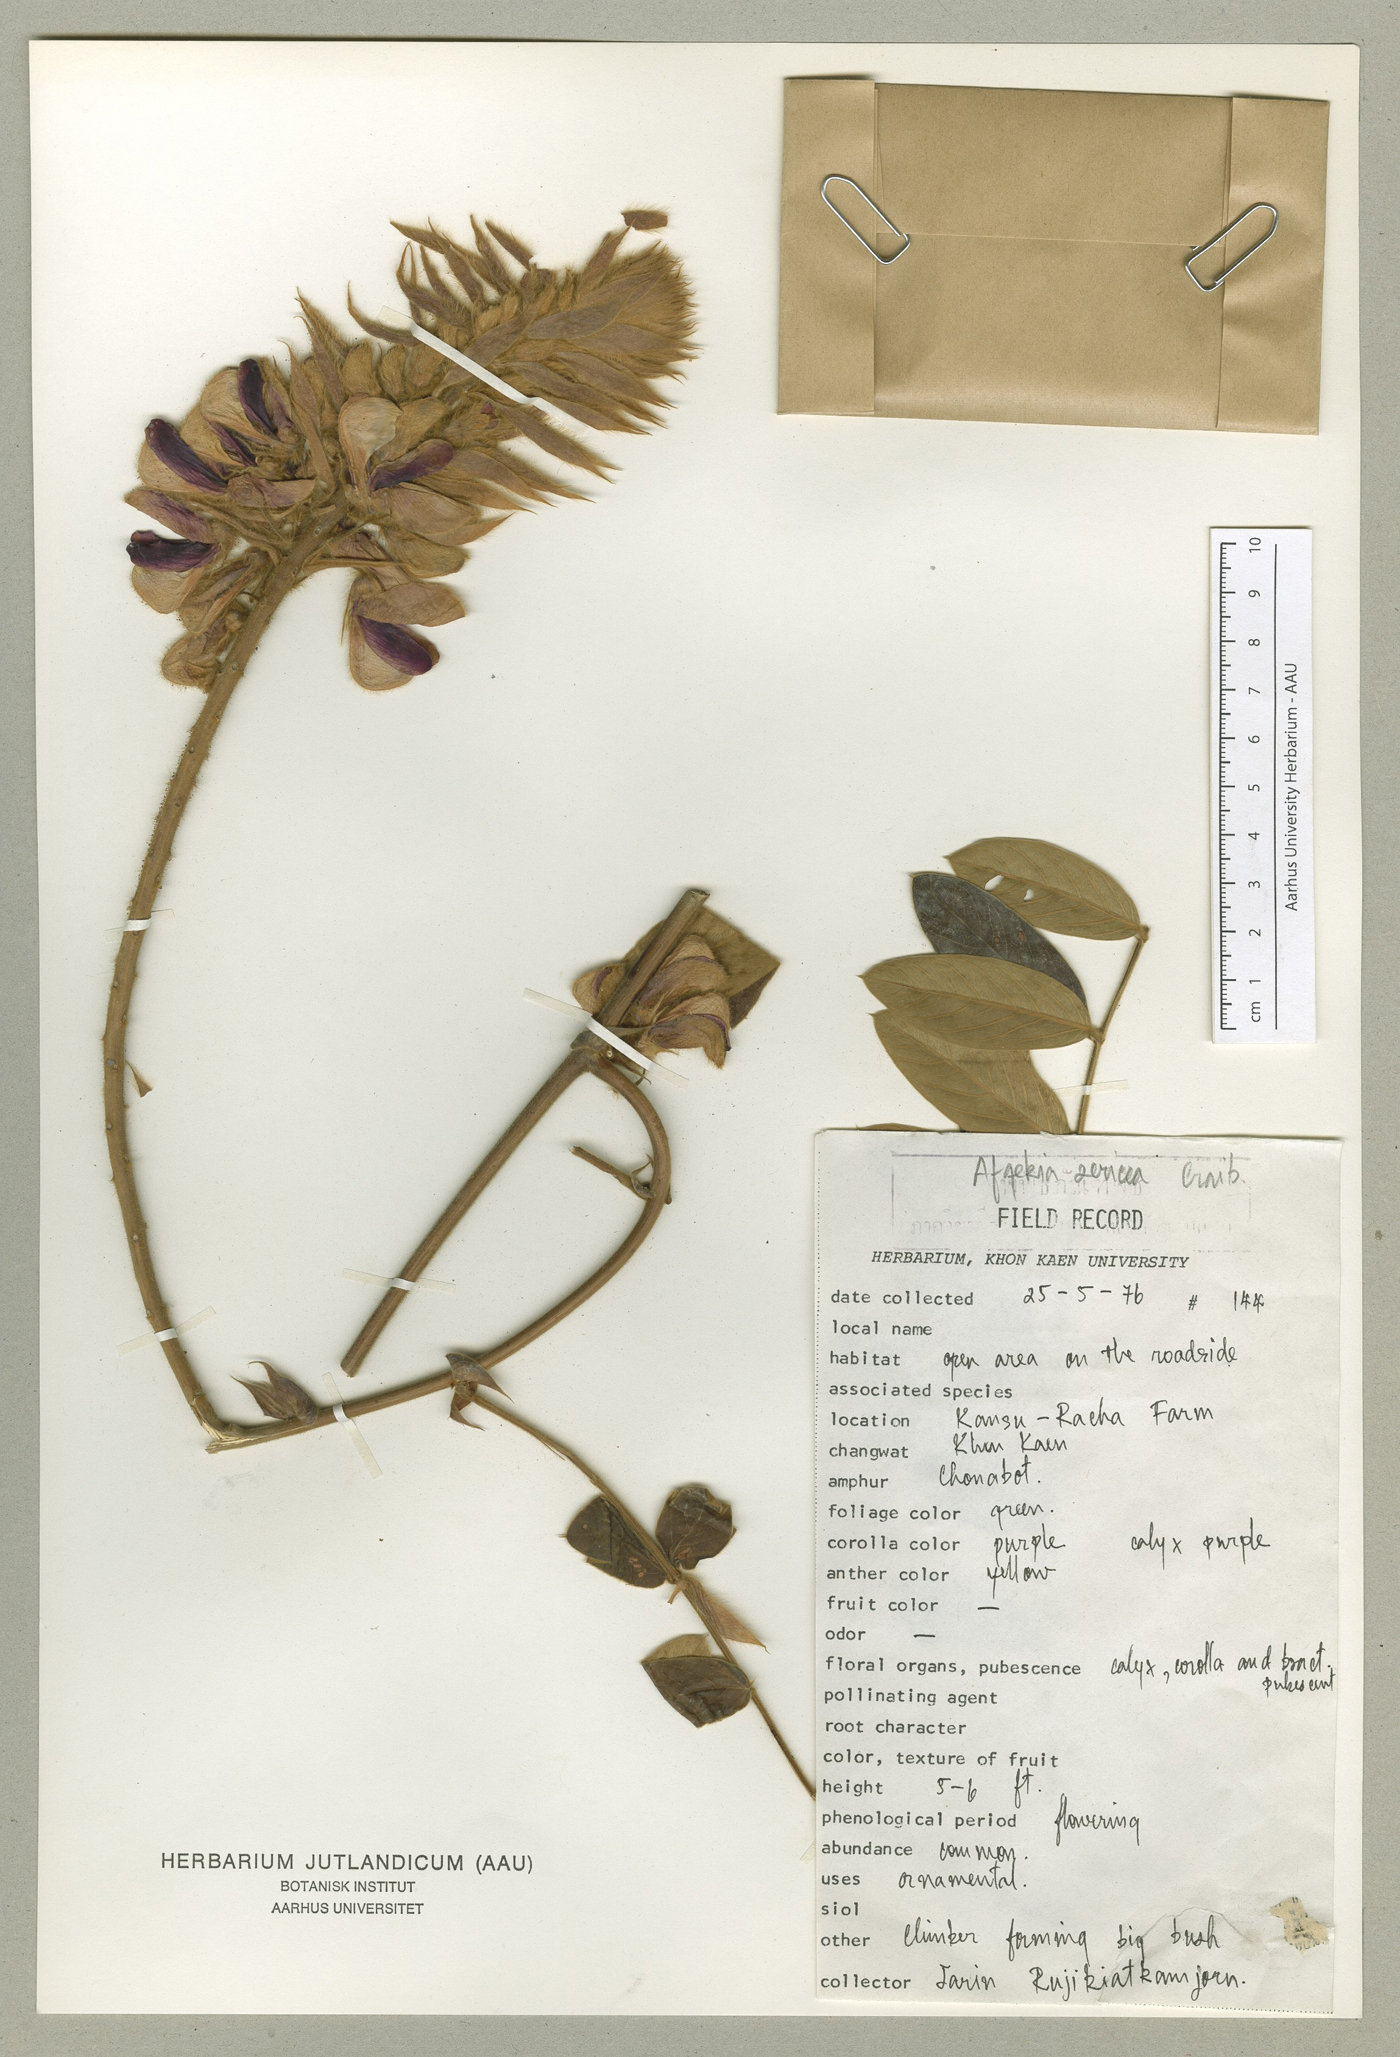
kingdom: Plantae
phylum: Tracheophyta
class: Magnoliopsida
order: Fabales
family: Fabaceae
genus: Afgekia
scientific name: Afgekia sericea
